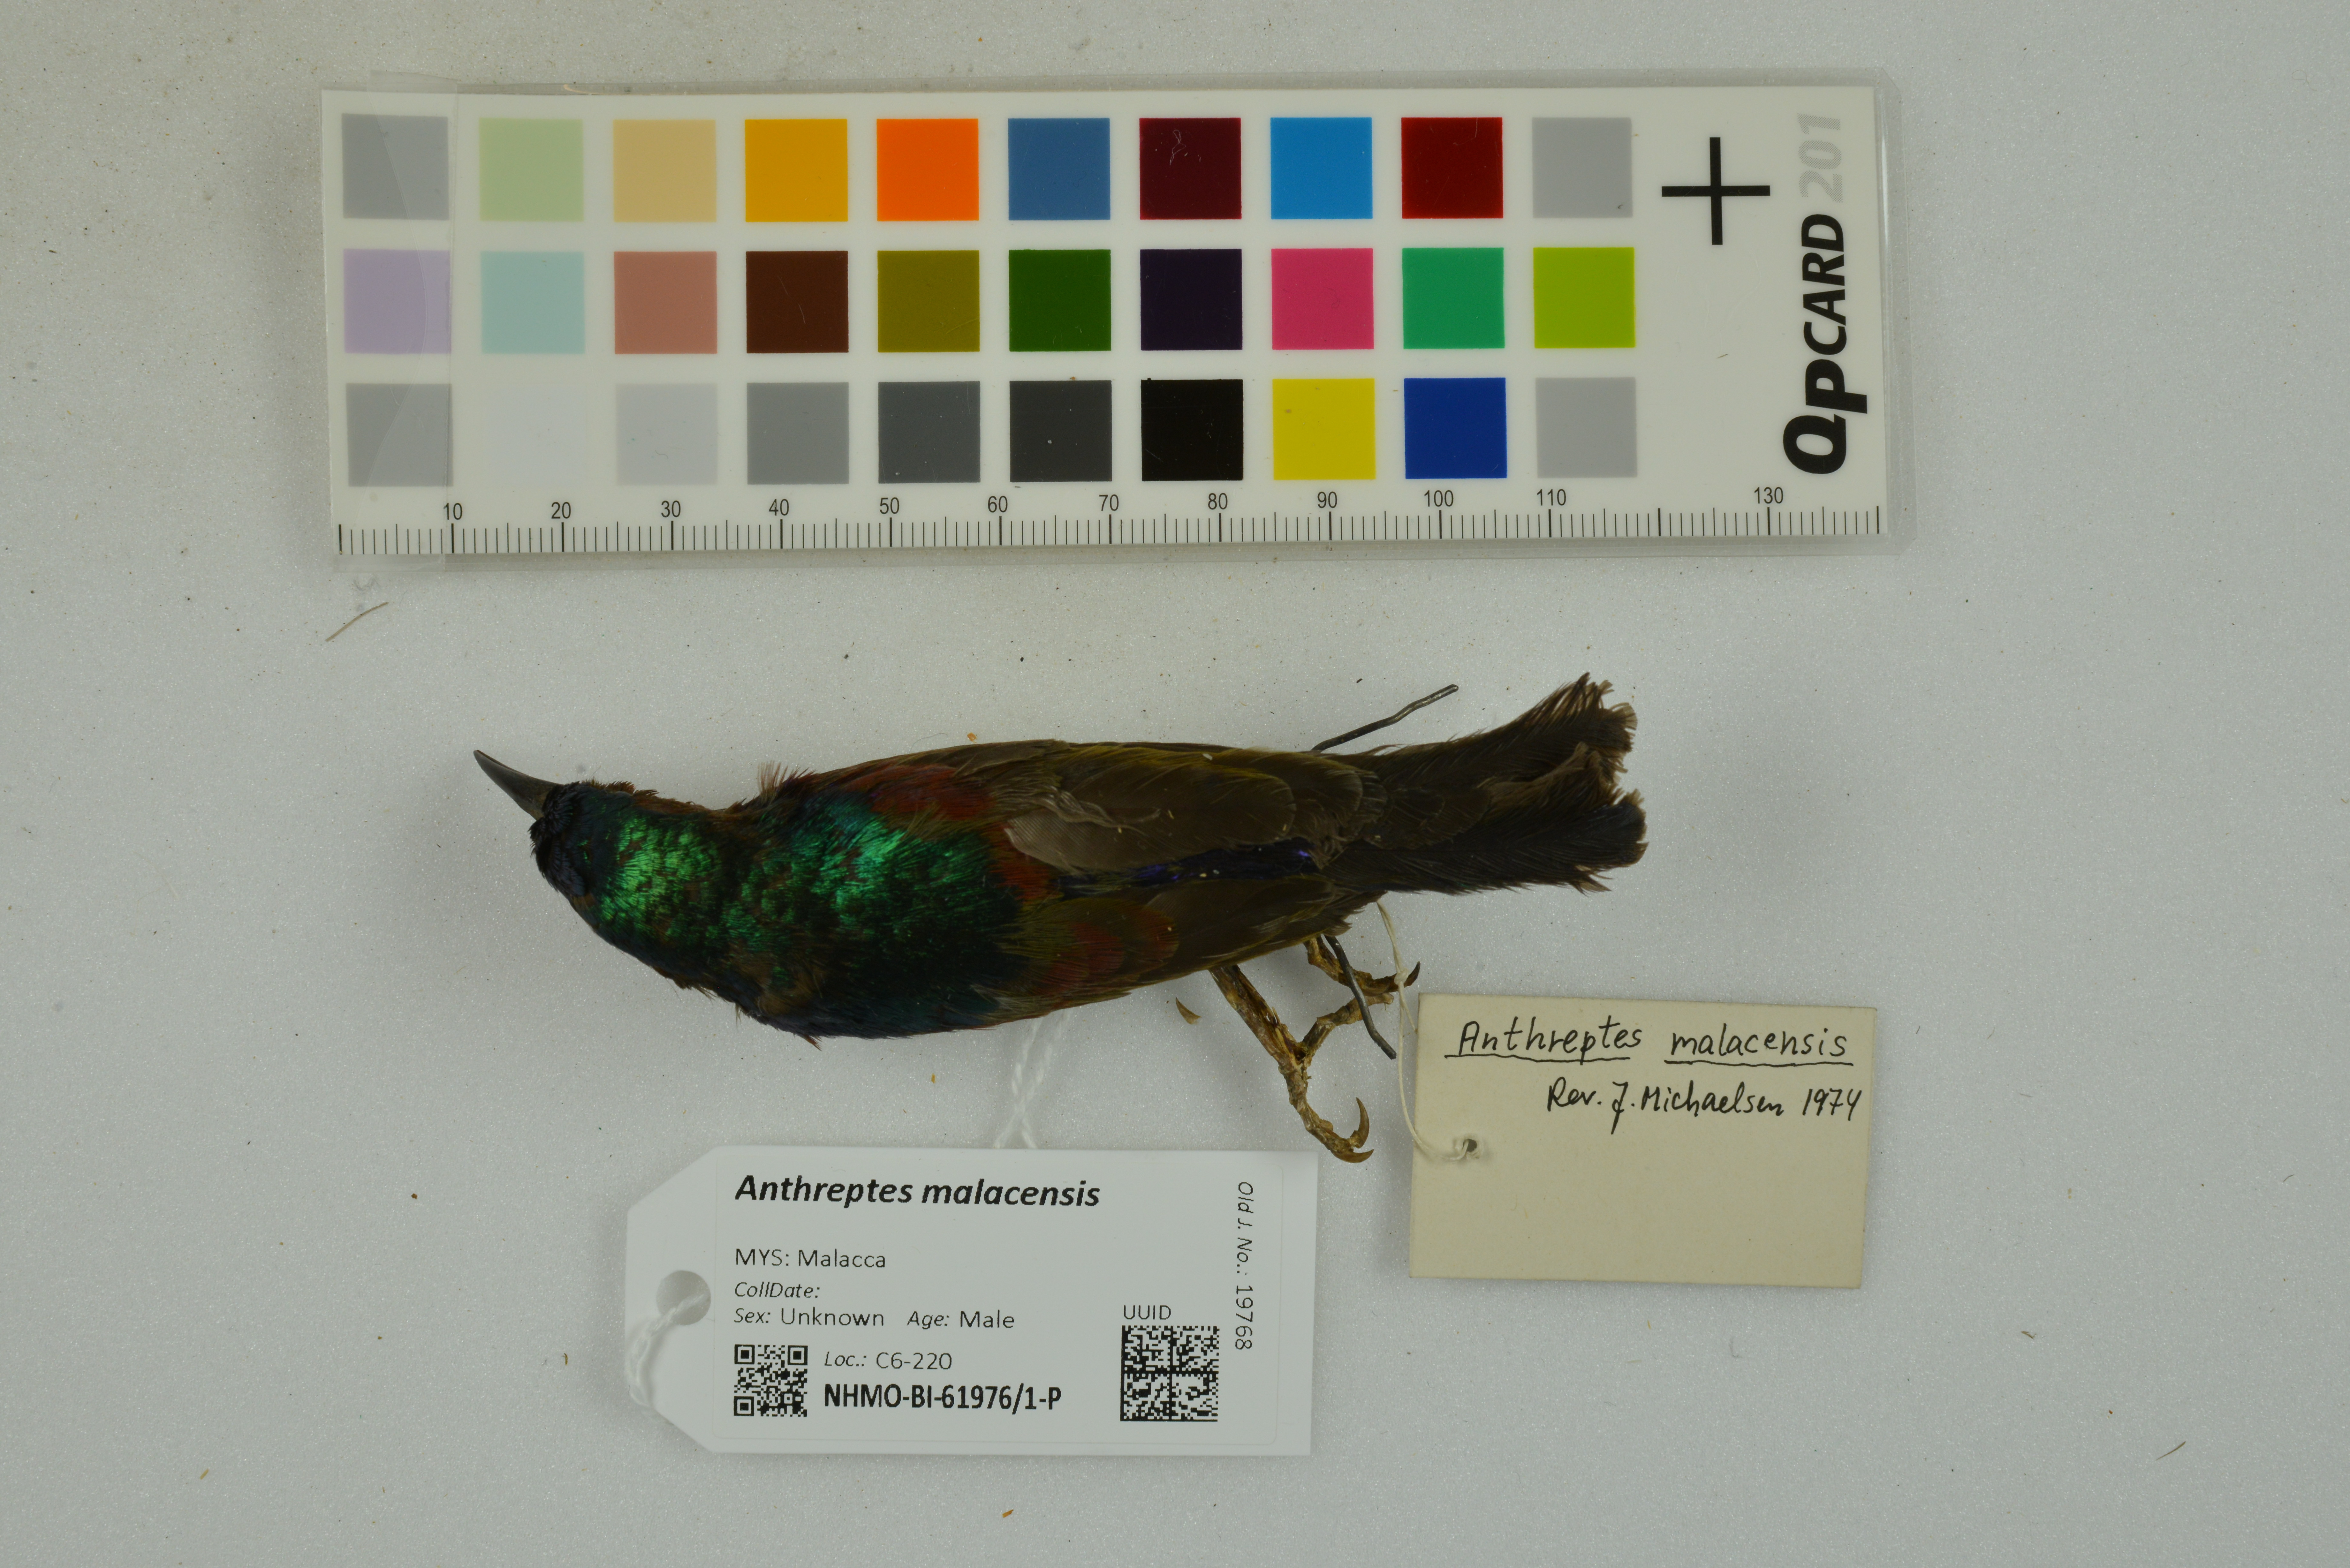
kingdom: Animalia
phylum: Chordata
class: Aves
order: Passeriformes
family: Nectariniidae
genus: Anthreptes
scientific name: Anthreptes malacensis
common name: Brown-throated sunbird
